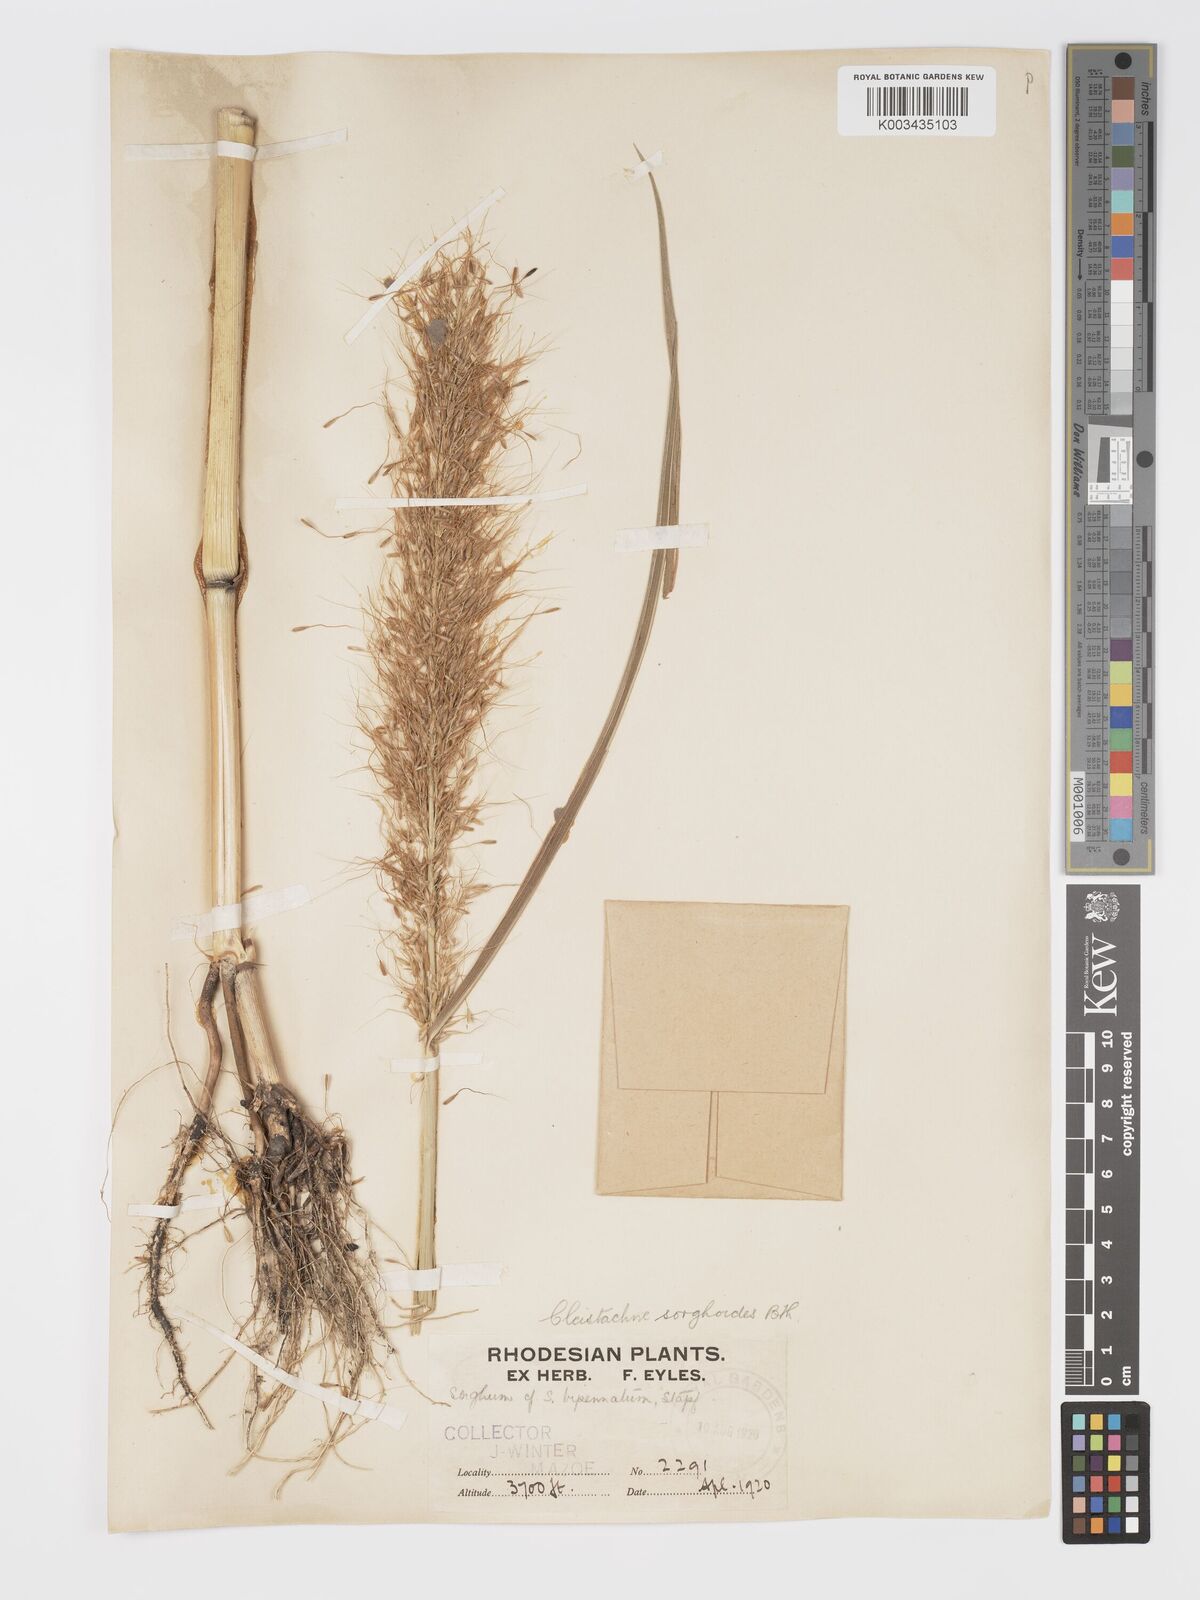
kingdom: Plantae
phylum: Tracheophyta
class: Liliopsida
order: Poales
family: Poaceae
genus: Cleistachne
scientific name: Cleistachne sorghoides
